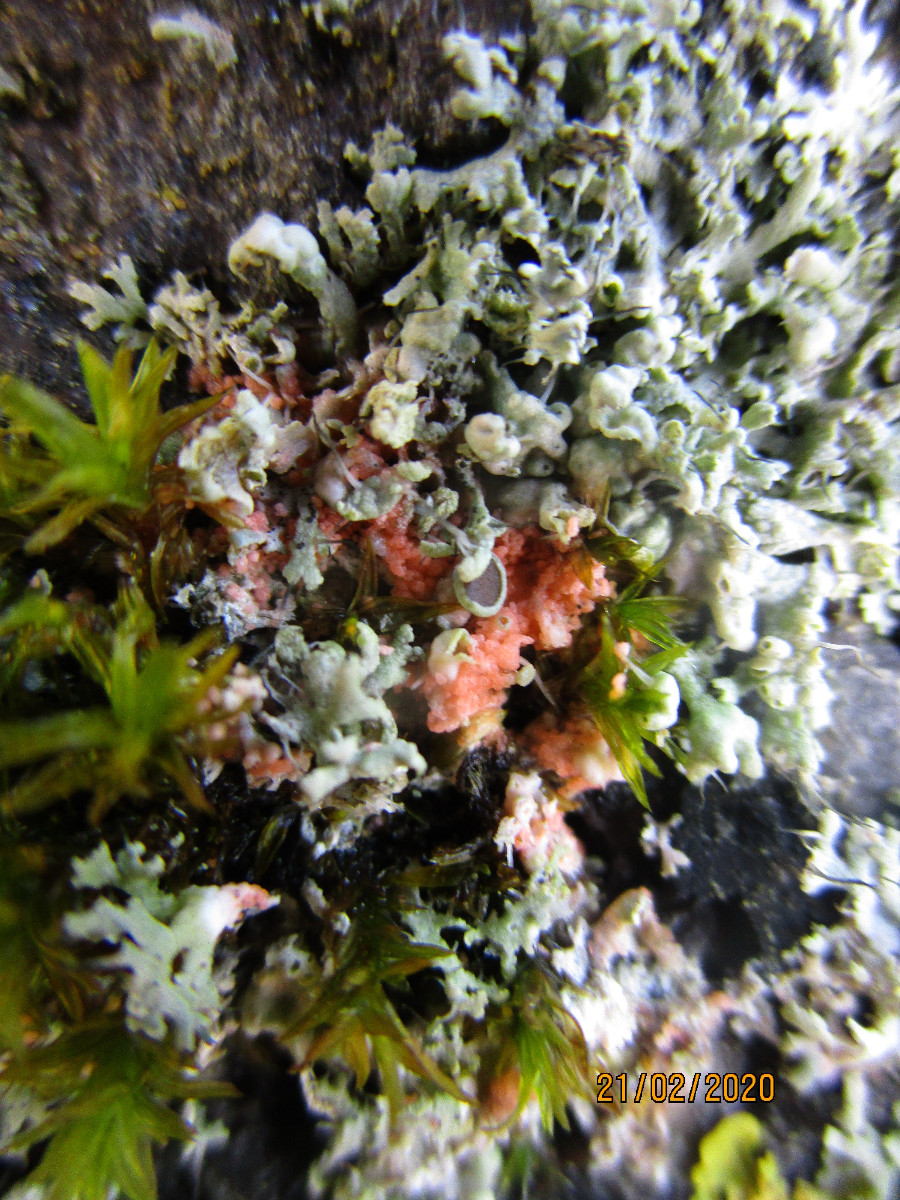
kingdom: Fungi
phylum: Basidiomycota
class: Agaricomycetes
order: Corticiales
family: Corticiaceae
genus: Erythricium
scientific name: Erythricium aurantiacum
